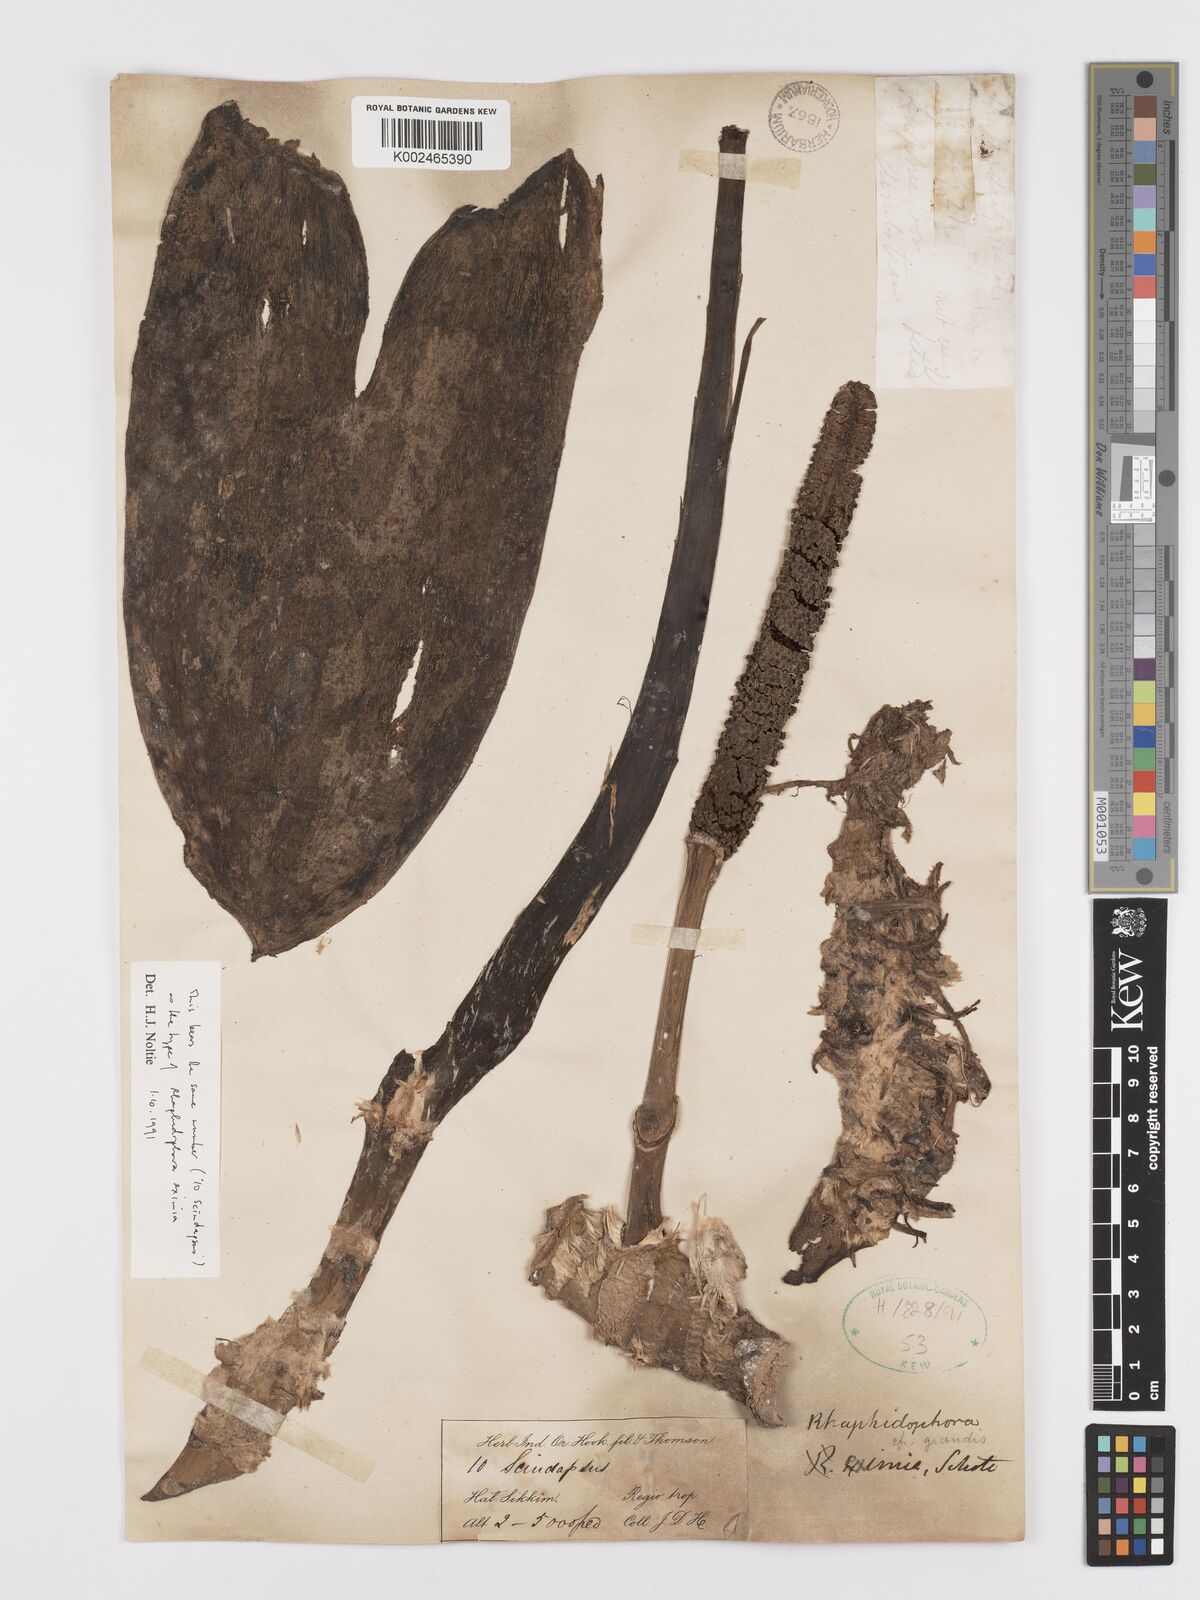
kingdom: Plantae
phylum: Tracheophyta
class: Liliopsida
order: Alismatales
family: Araceae
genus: Rhaphidophora
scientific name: Rhaphidophora decursiva
